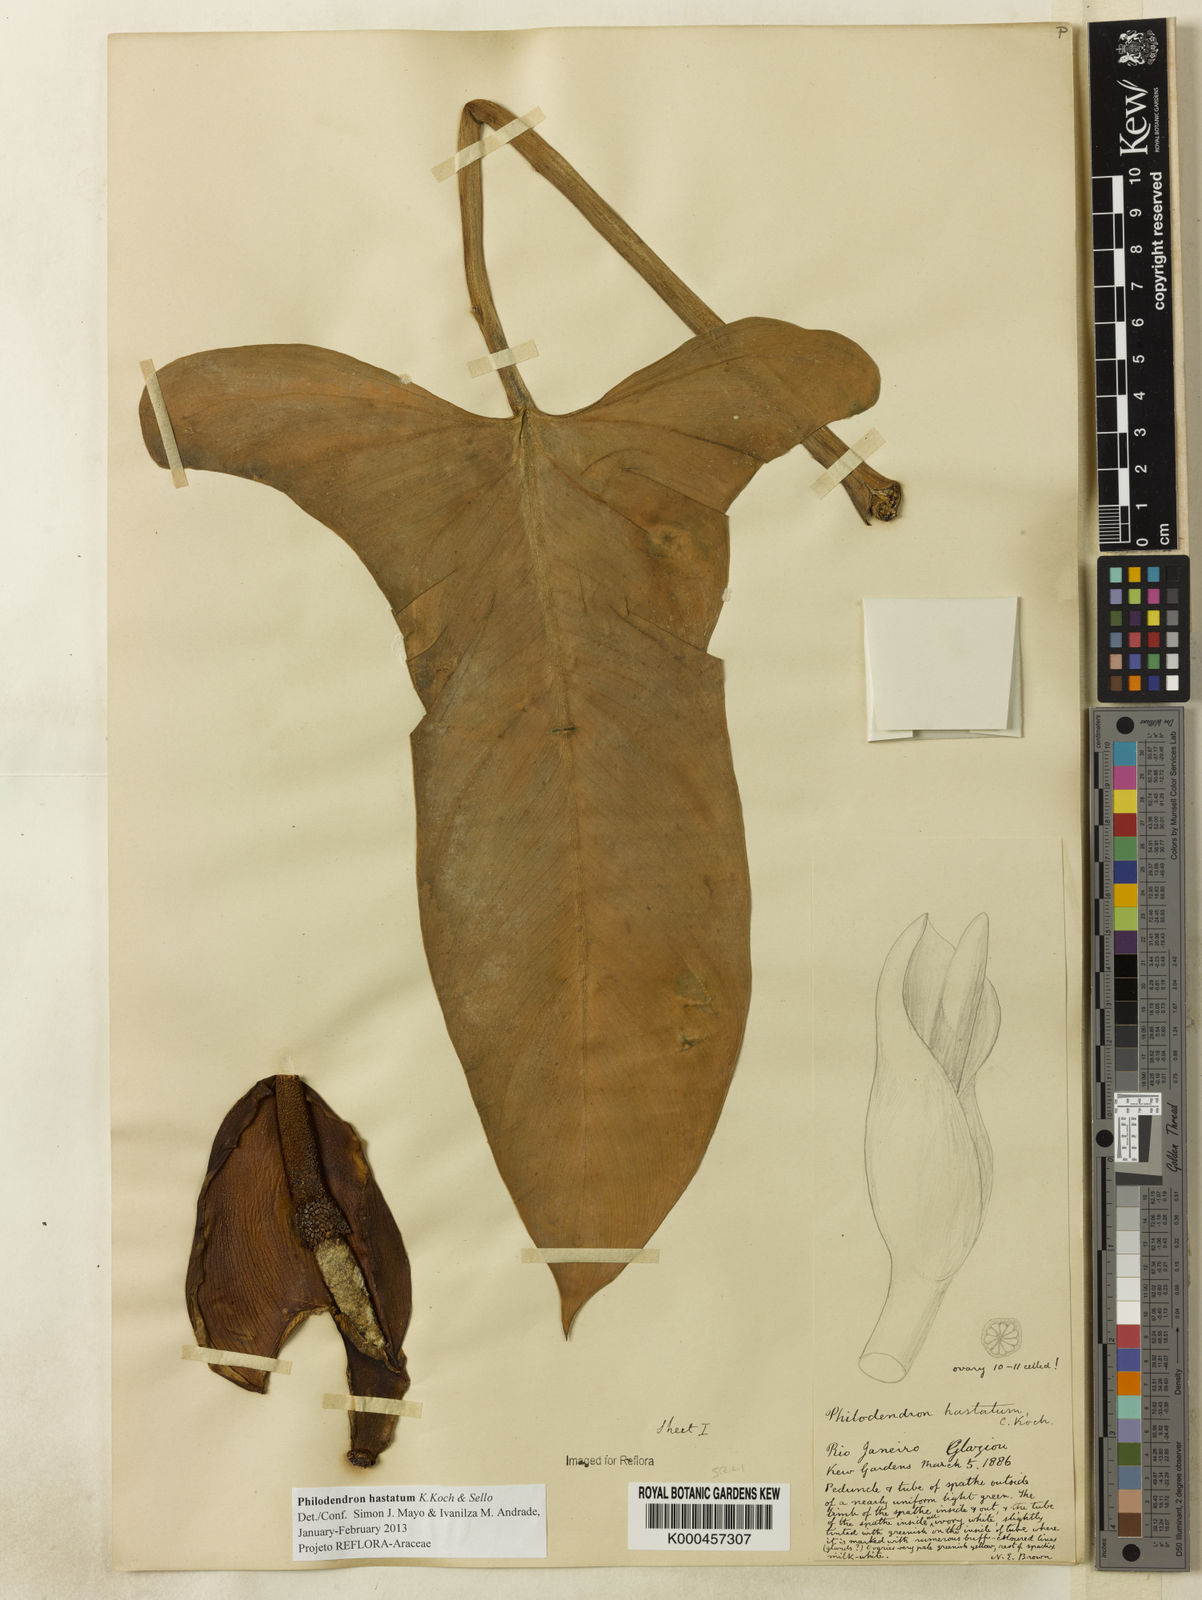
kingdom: Plantae
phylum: Tracheophyta
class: Liliopsida
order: Alismatales
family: Araceae
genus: Philodendron
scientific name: Philodendron hastatum
